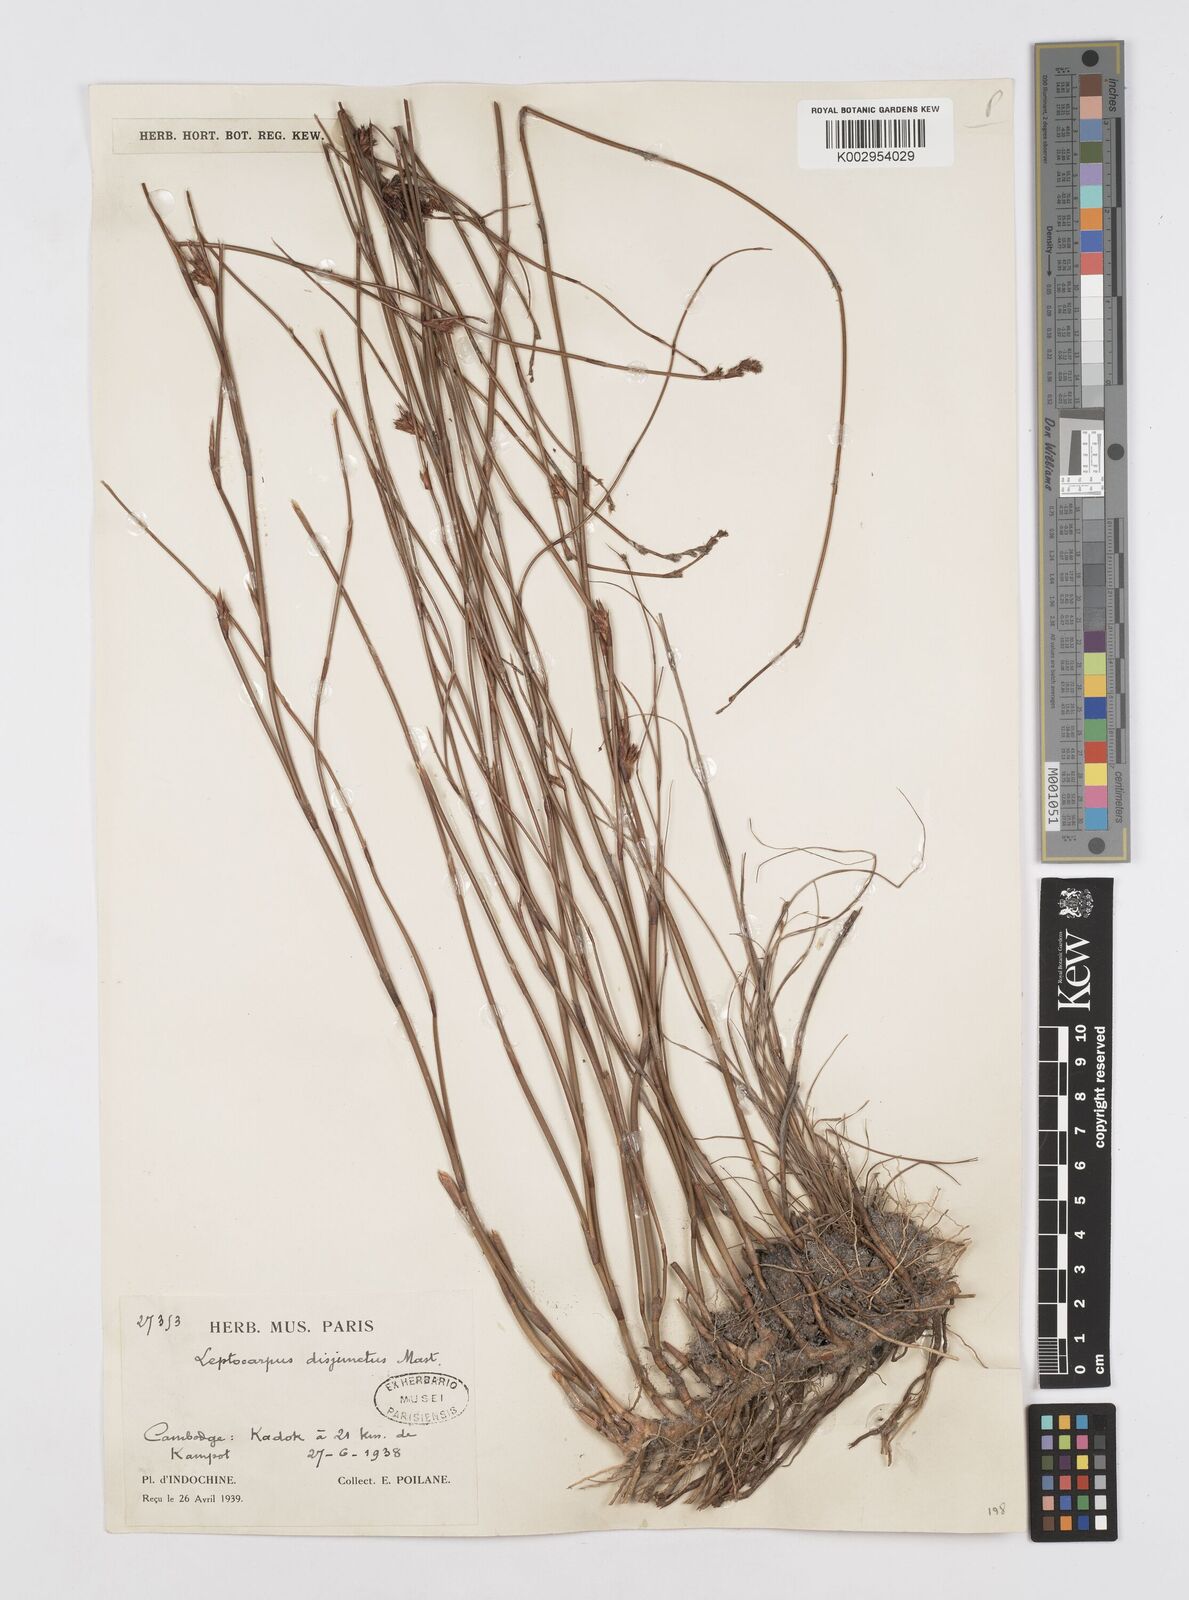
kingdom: Plantae
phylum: Tracheophyta
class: Liliopsida
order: Poales
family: Restionaceae
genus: Dapsilanthus
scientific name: Dapsilanthus disjunctus
